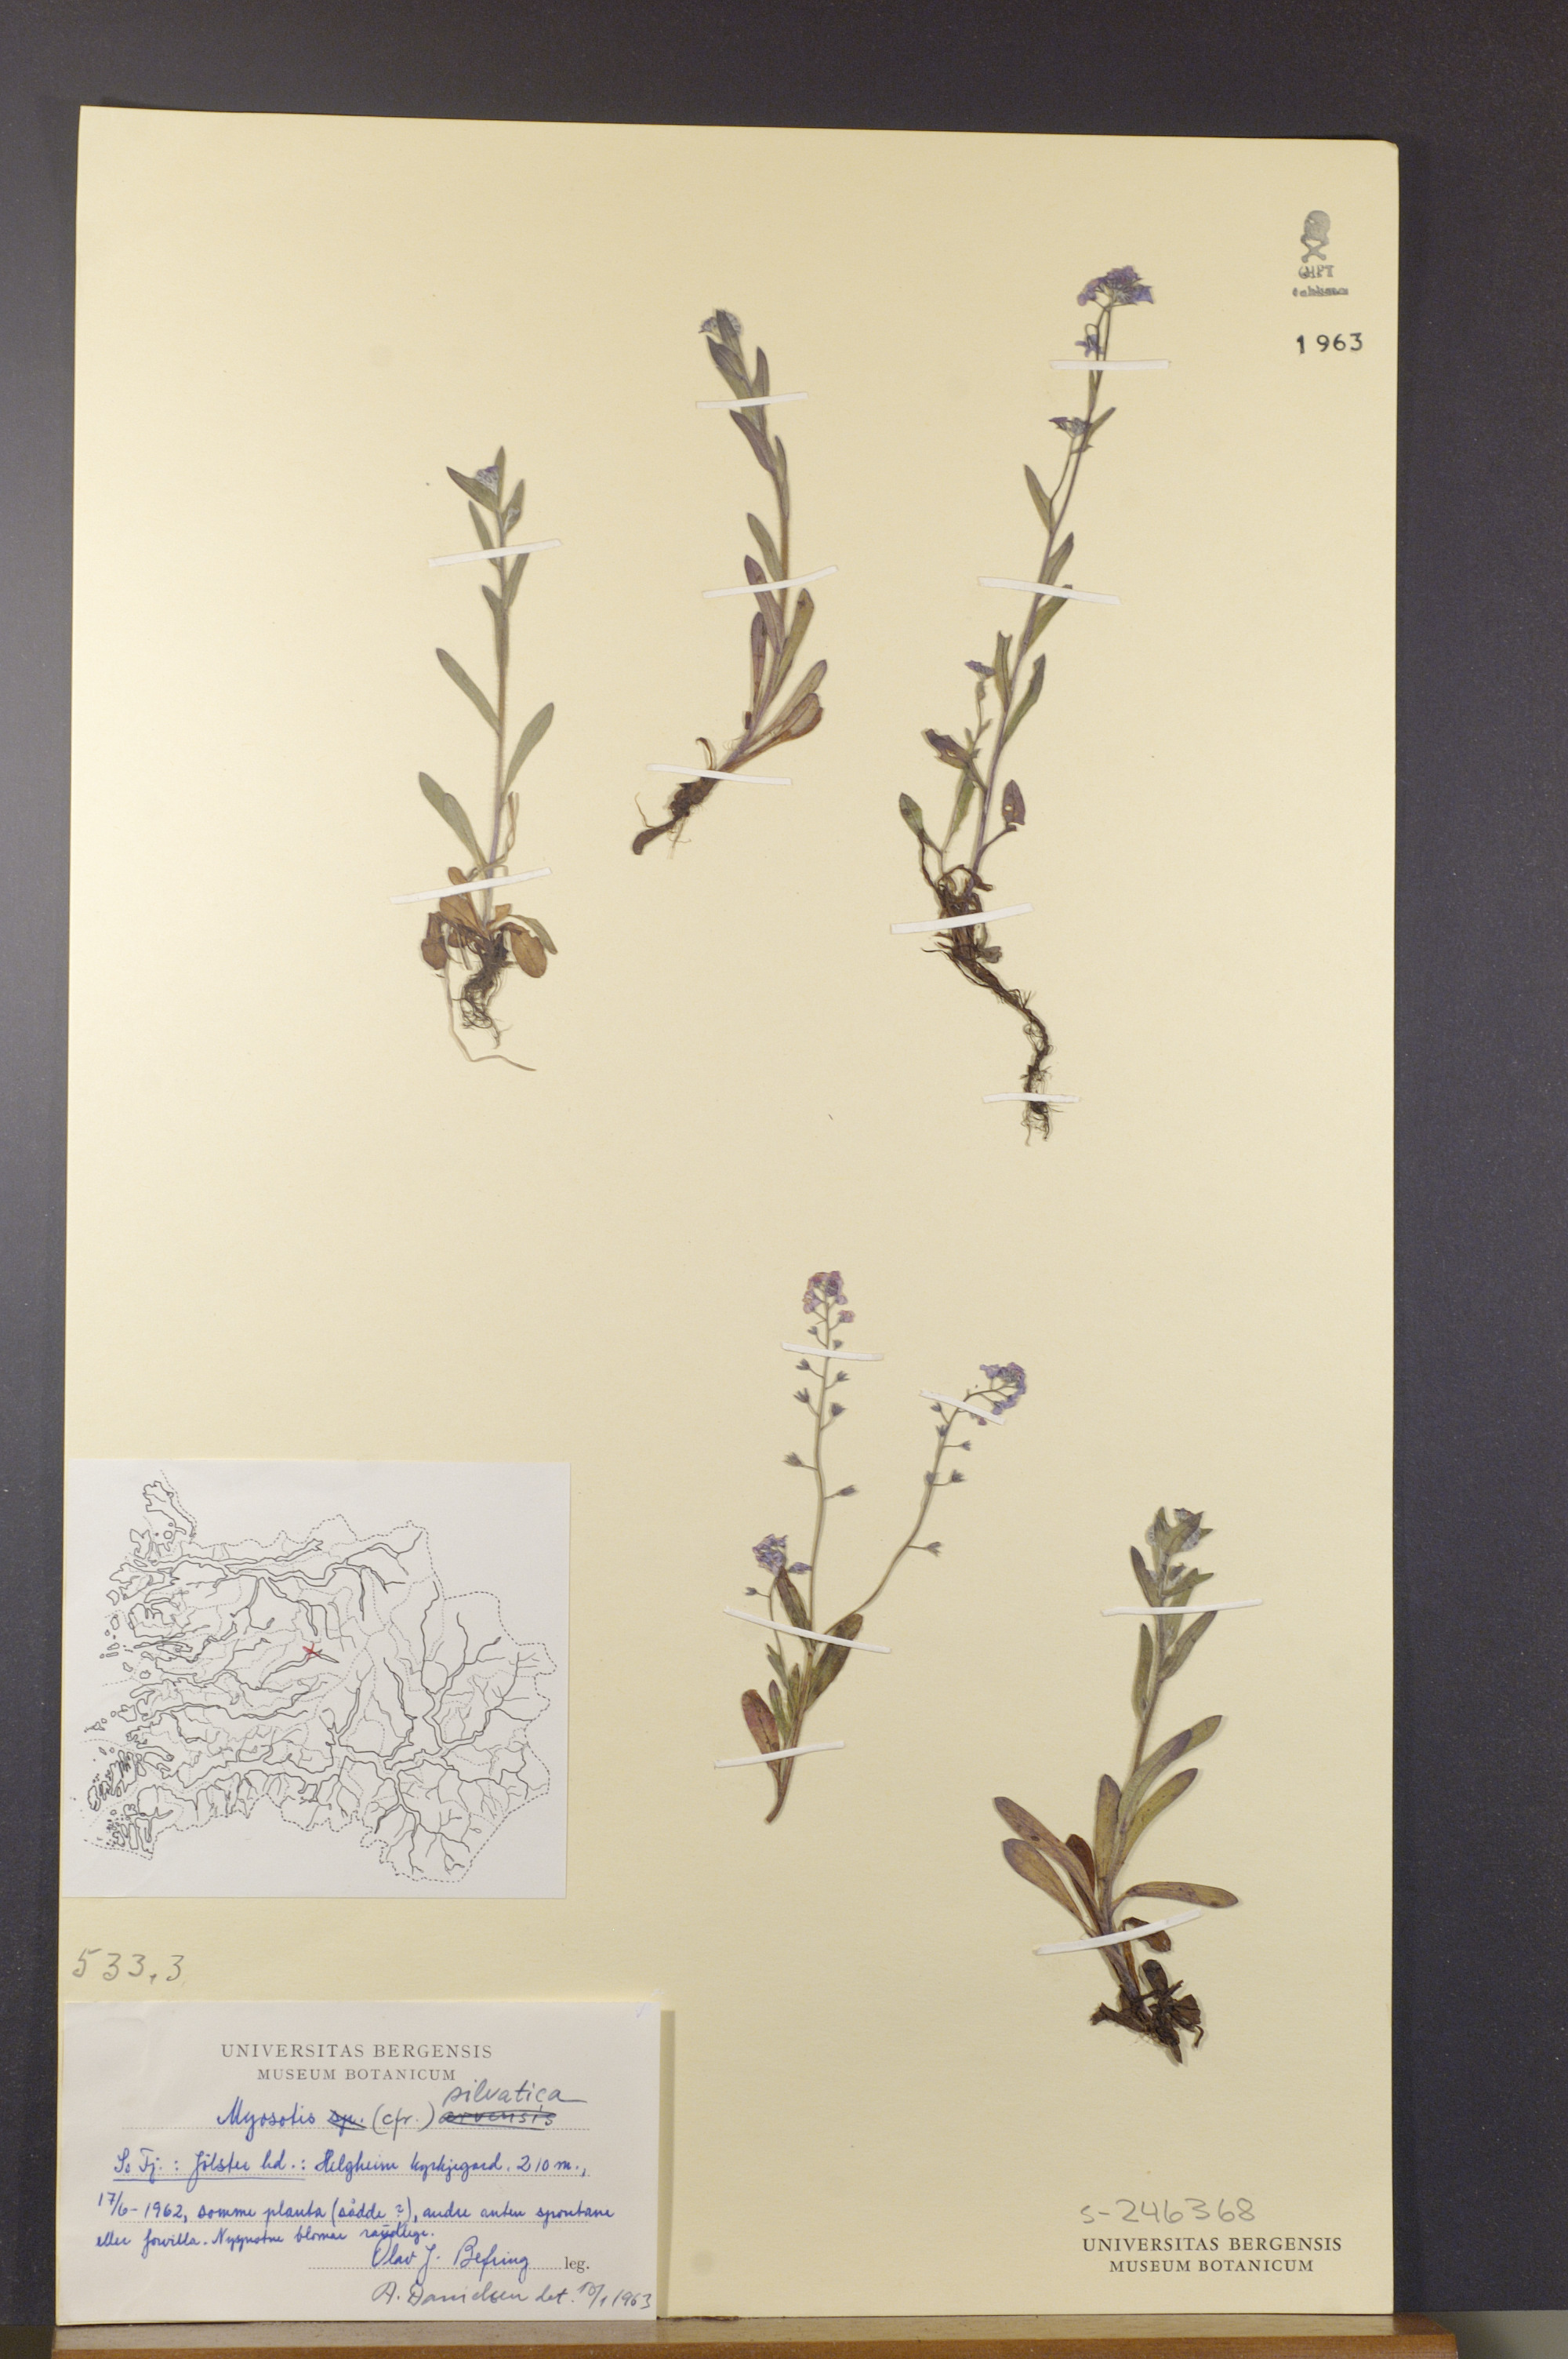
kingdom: Plantae
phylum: Tracheophyta
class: Magnoliopsida
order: Boraginales
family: Boraginaceae
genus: Myosotis
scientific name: Myosotis sylvatica
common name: Wood forget-me-not
